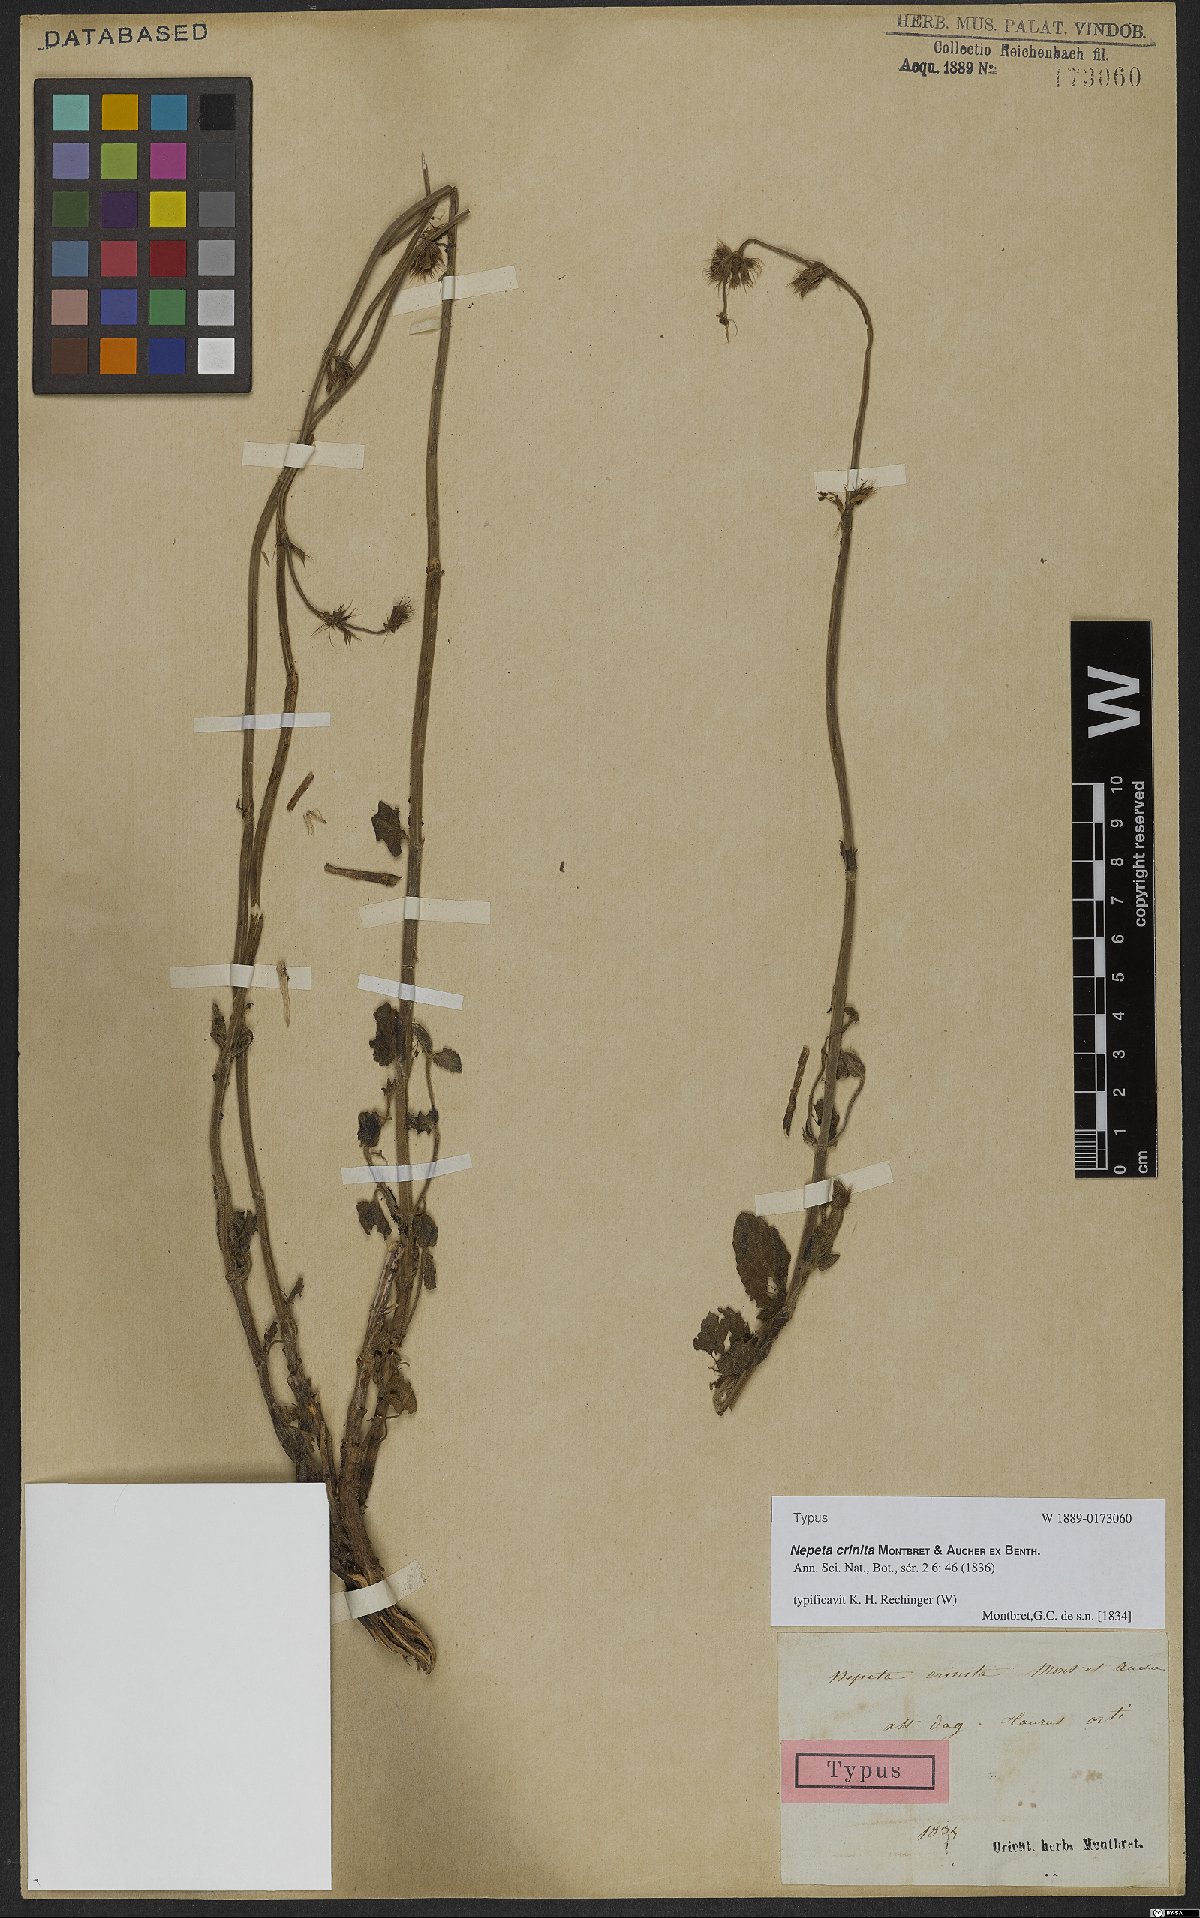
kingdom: Plantae
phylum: Tracheophyta
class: Magnoliopsida
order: Lamiales
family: Lamiaceae
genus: Nepeta
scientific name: Nepeta crinita
